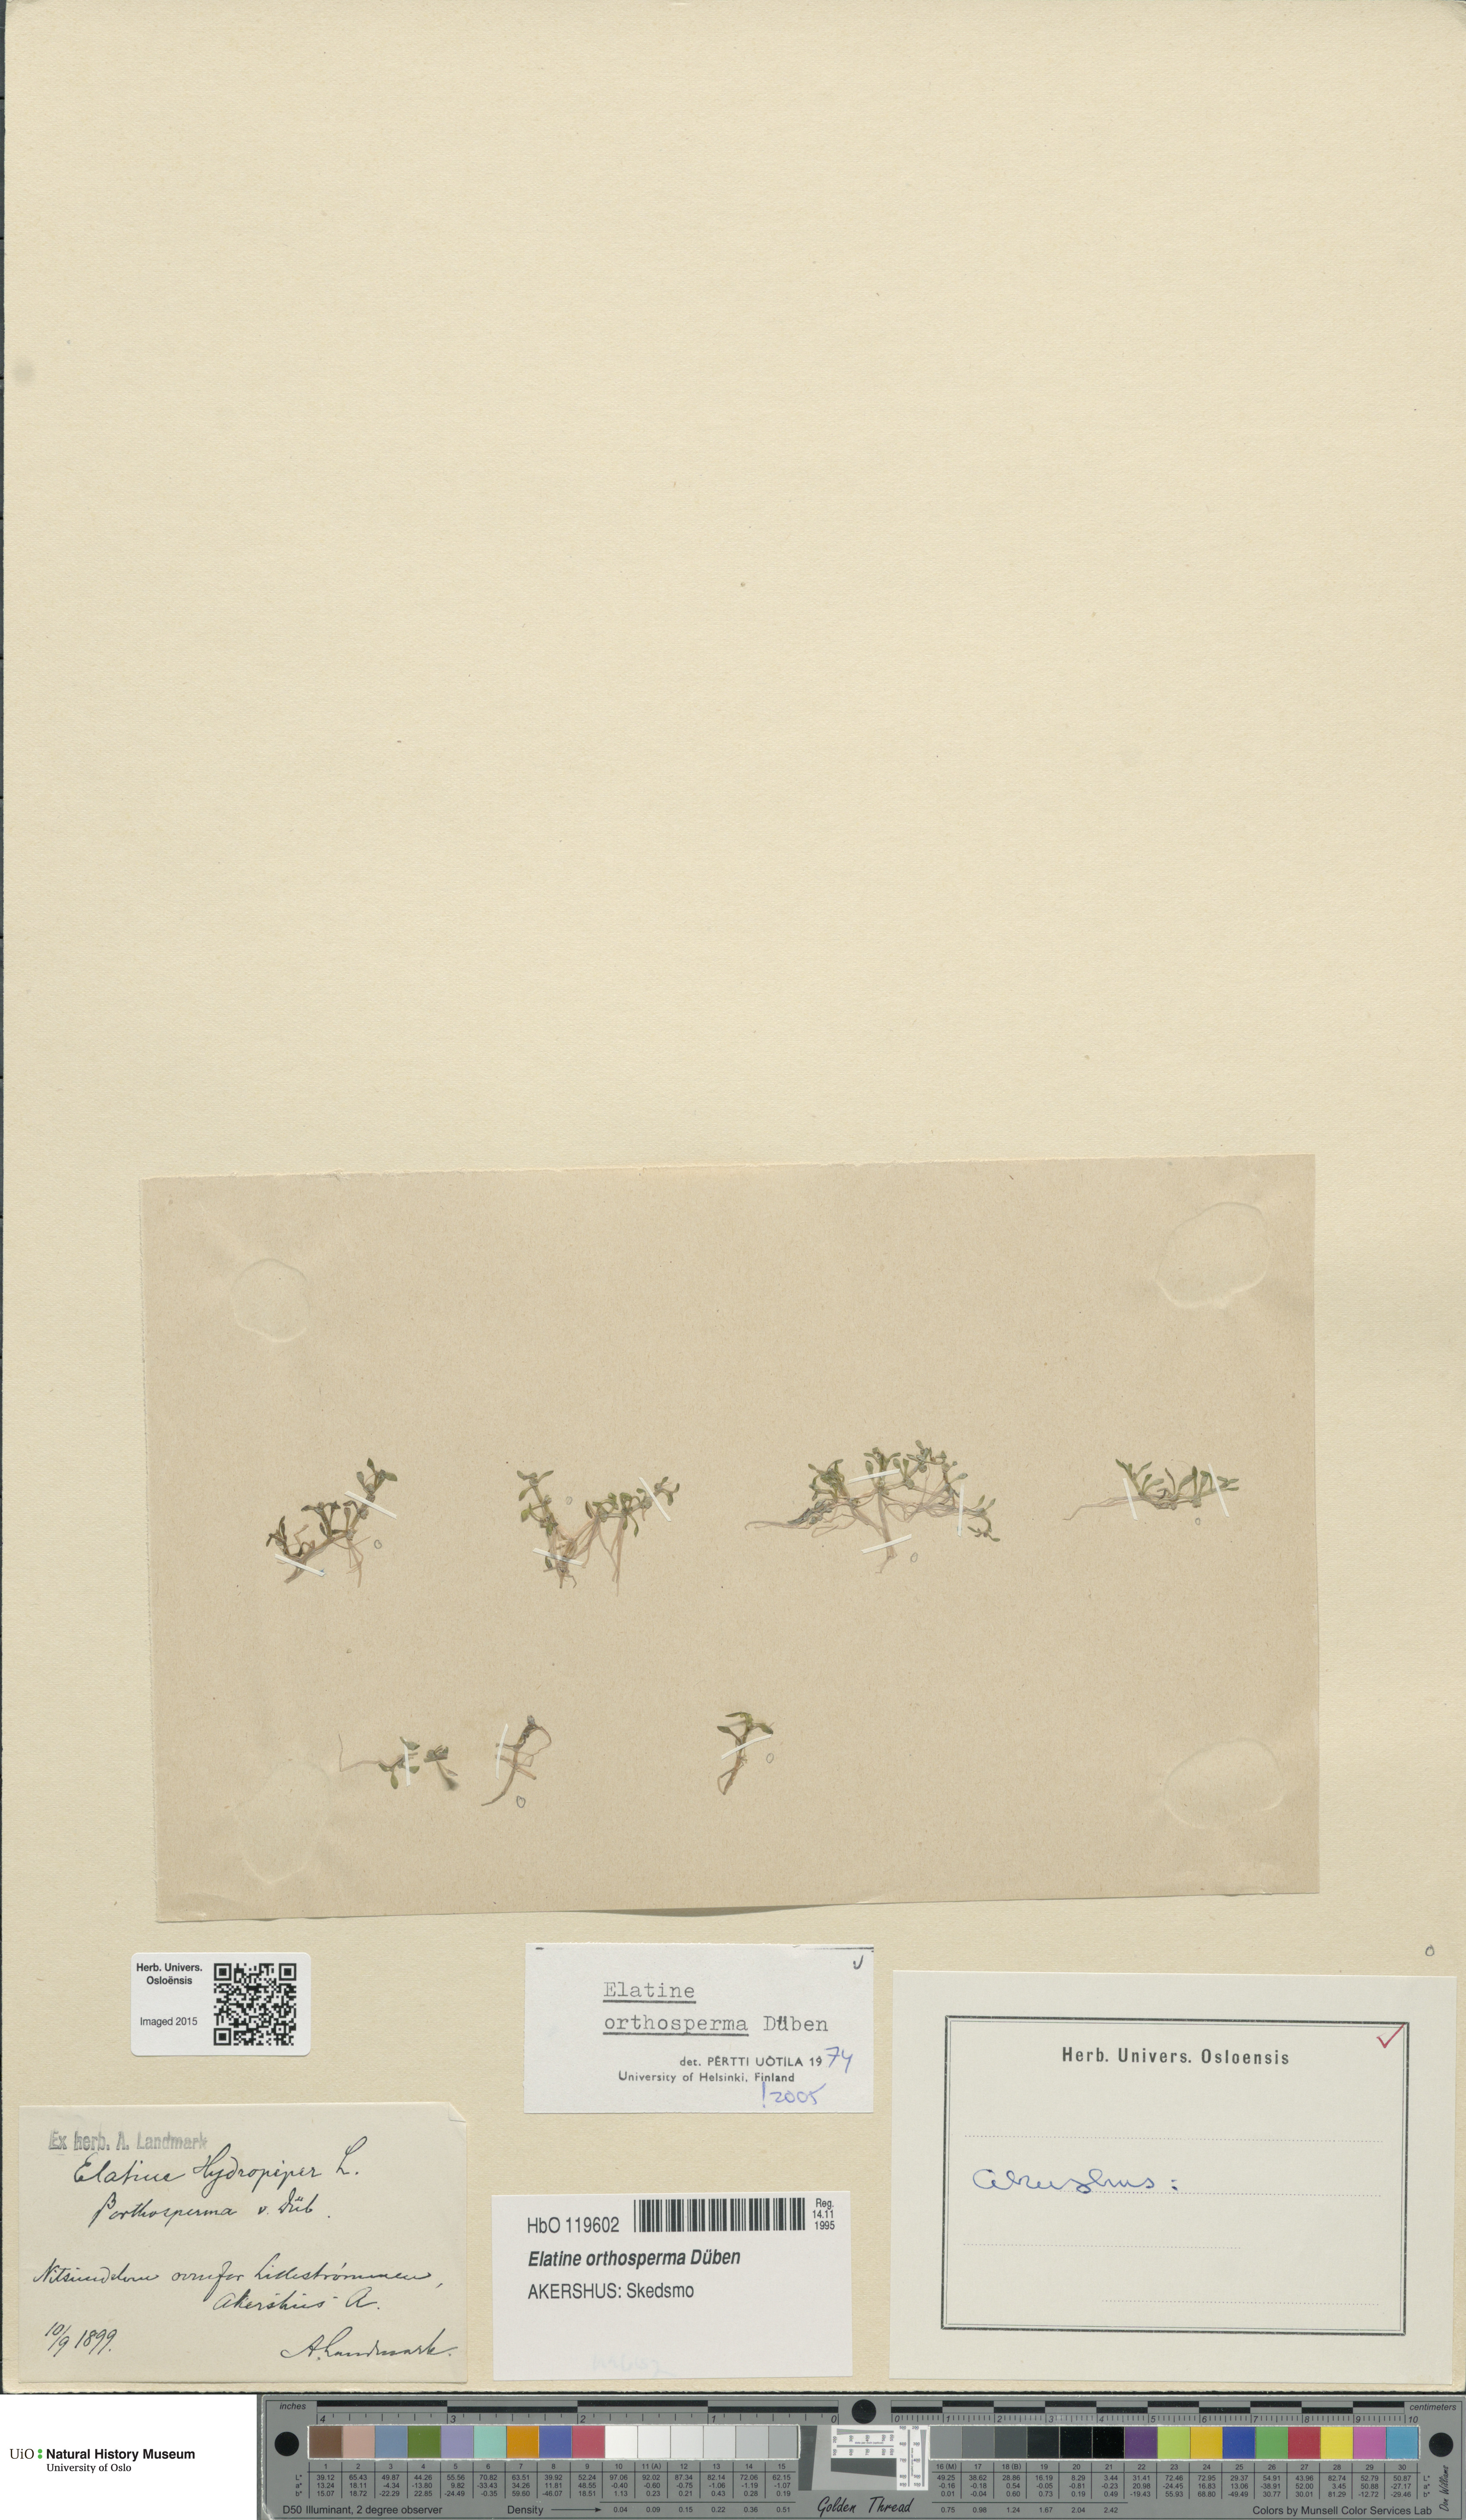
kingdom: Plantae
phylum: Tracheophyta
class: Magnoliopsida
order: Malpighiales
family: Elatinaceae
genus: Elatine
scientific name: Elatine orthosperma
